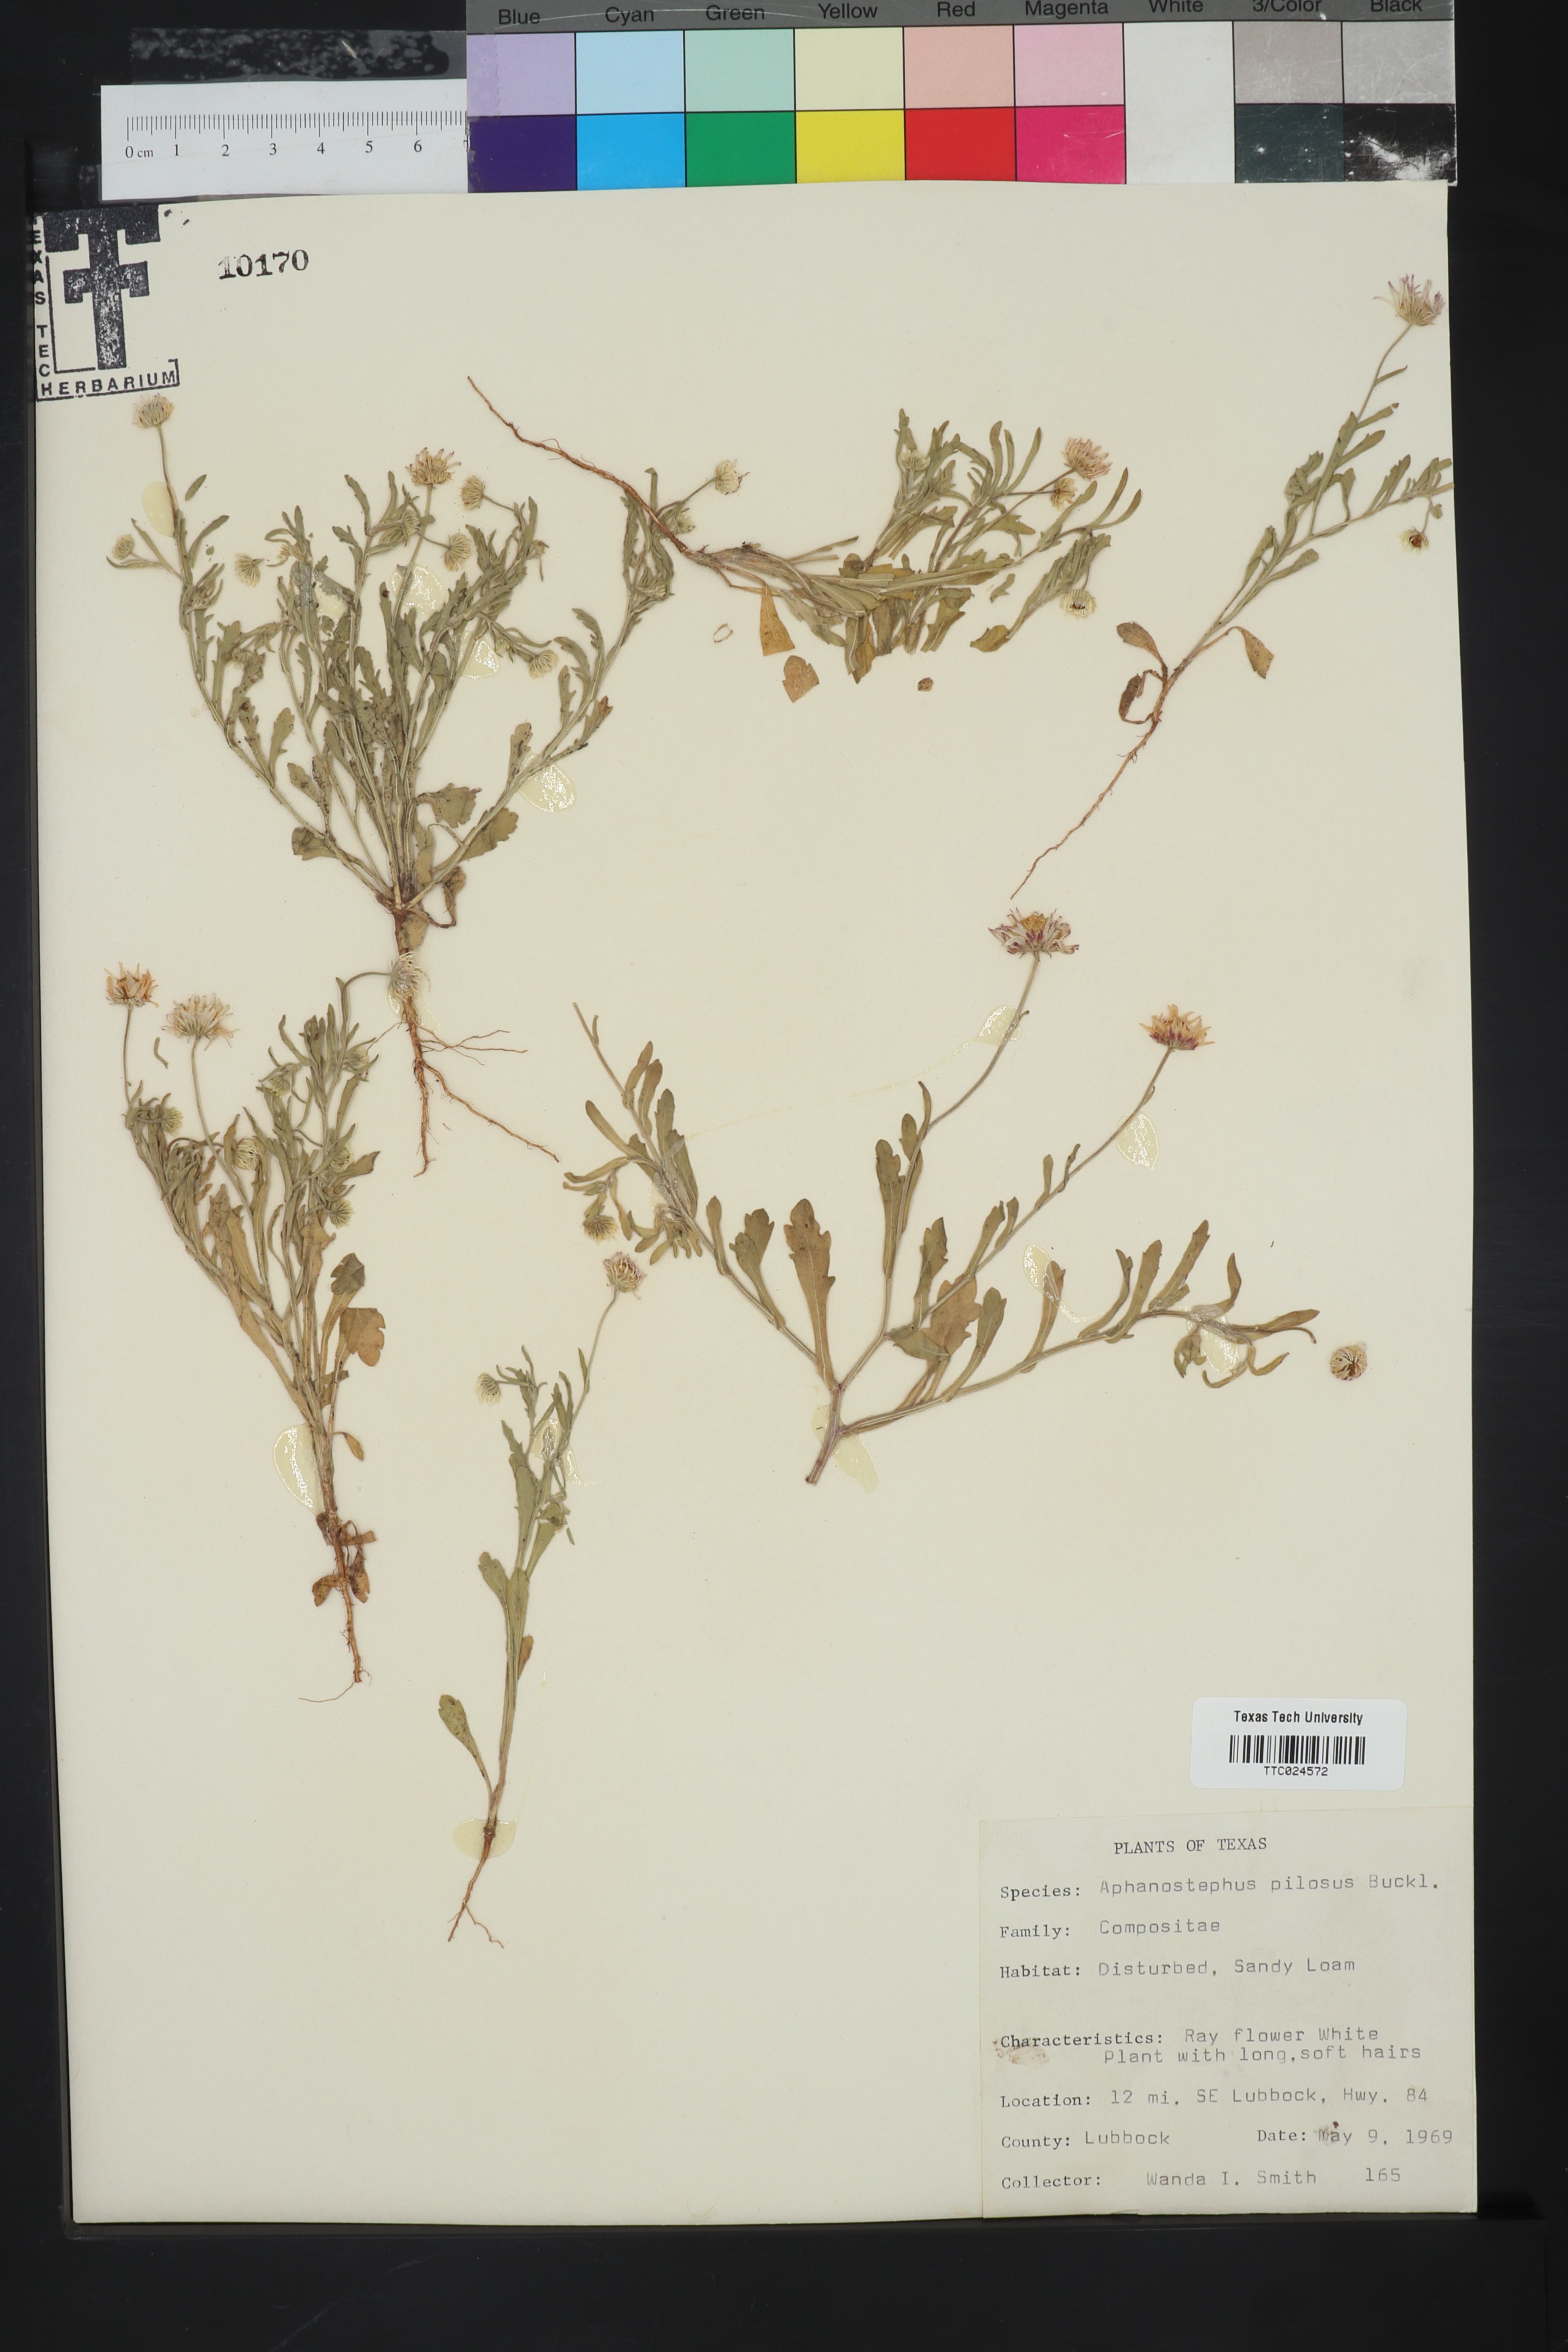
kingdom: Plantae
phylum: Tracheophyta
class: Magnoliopsida
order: Asterales
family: Asteraceae
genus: Aphanostephus
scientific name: Aphanostephus pilosus
